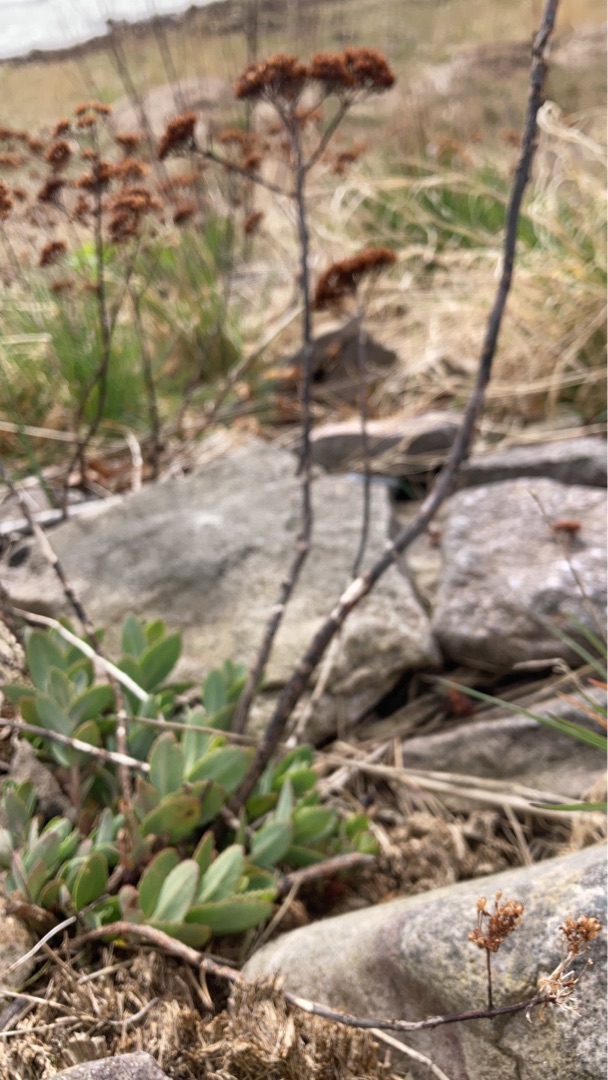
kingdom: Plantae
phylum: Tracheophyta
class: Magnoliopsida
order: Saxifragales
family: Crassulaceae
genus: Hylotelephium
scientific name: Hylotelephium telephium
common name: Sankthansurt
